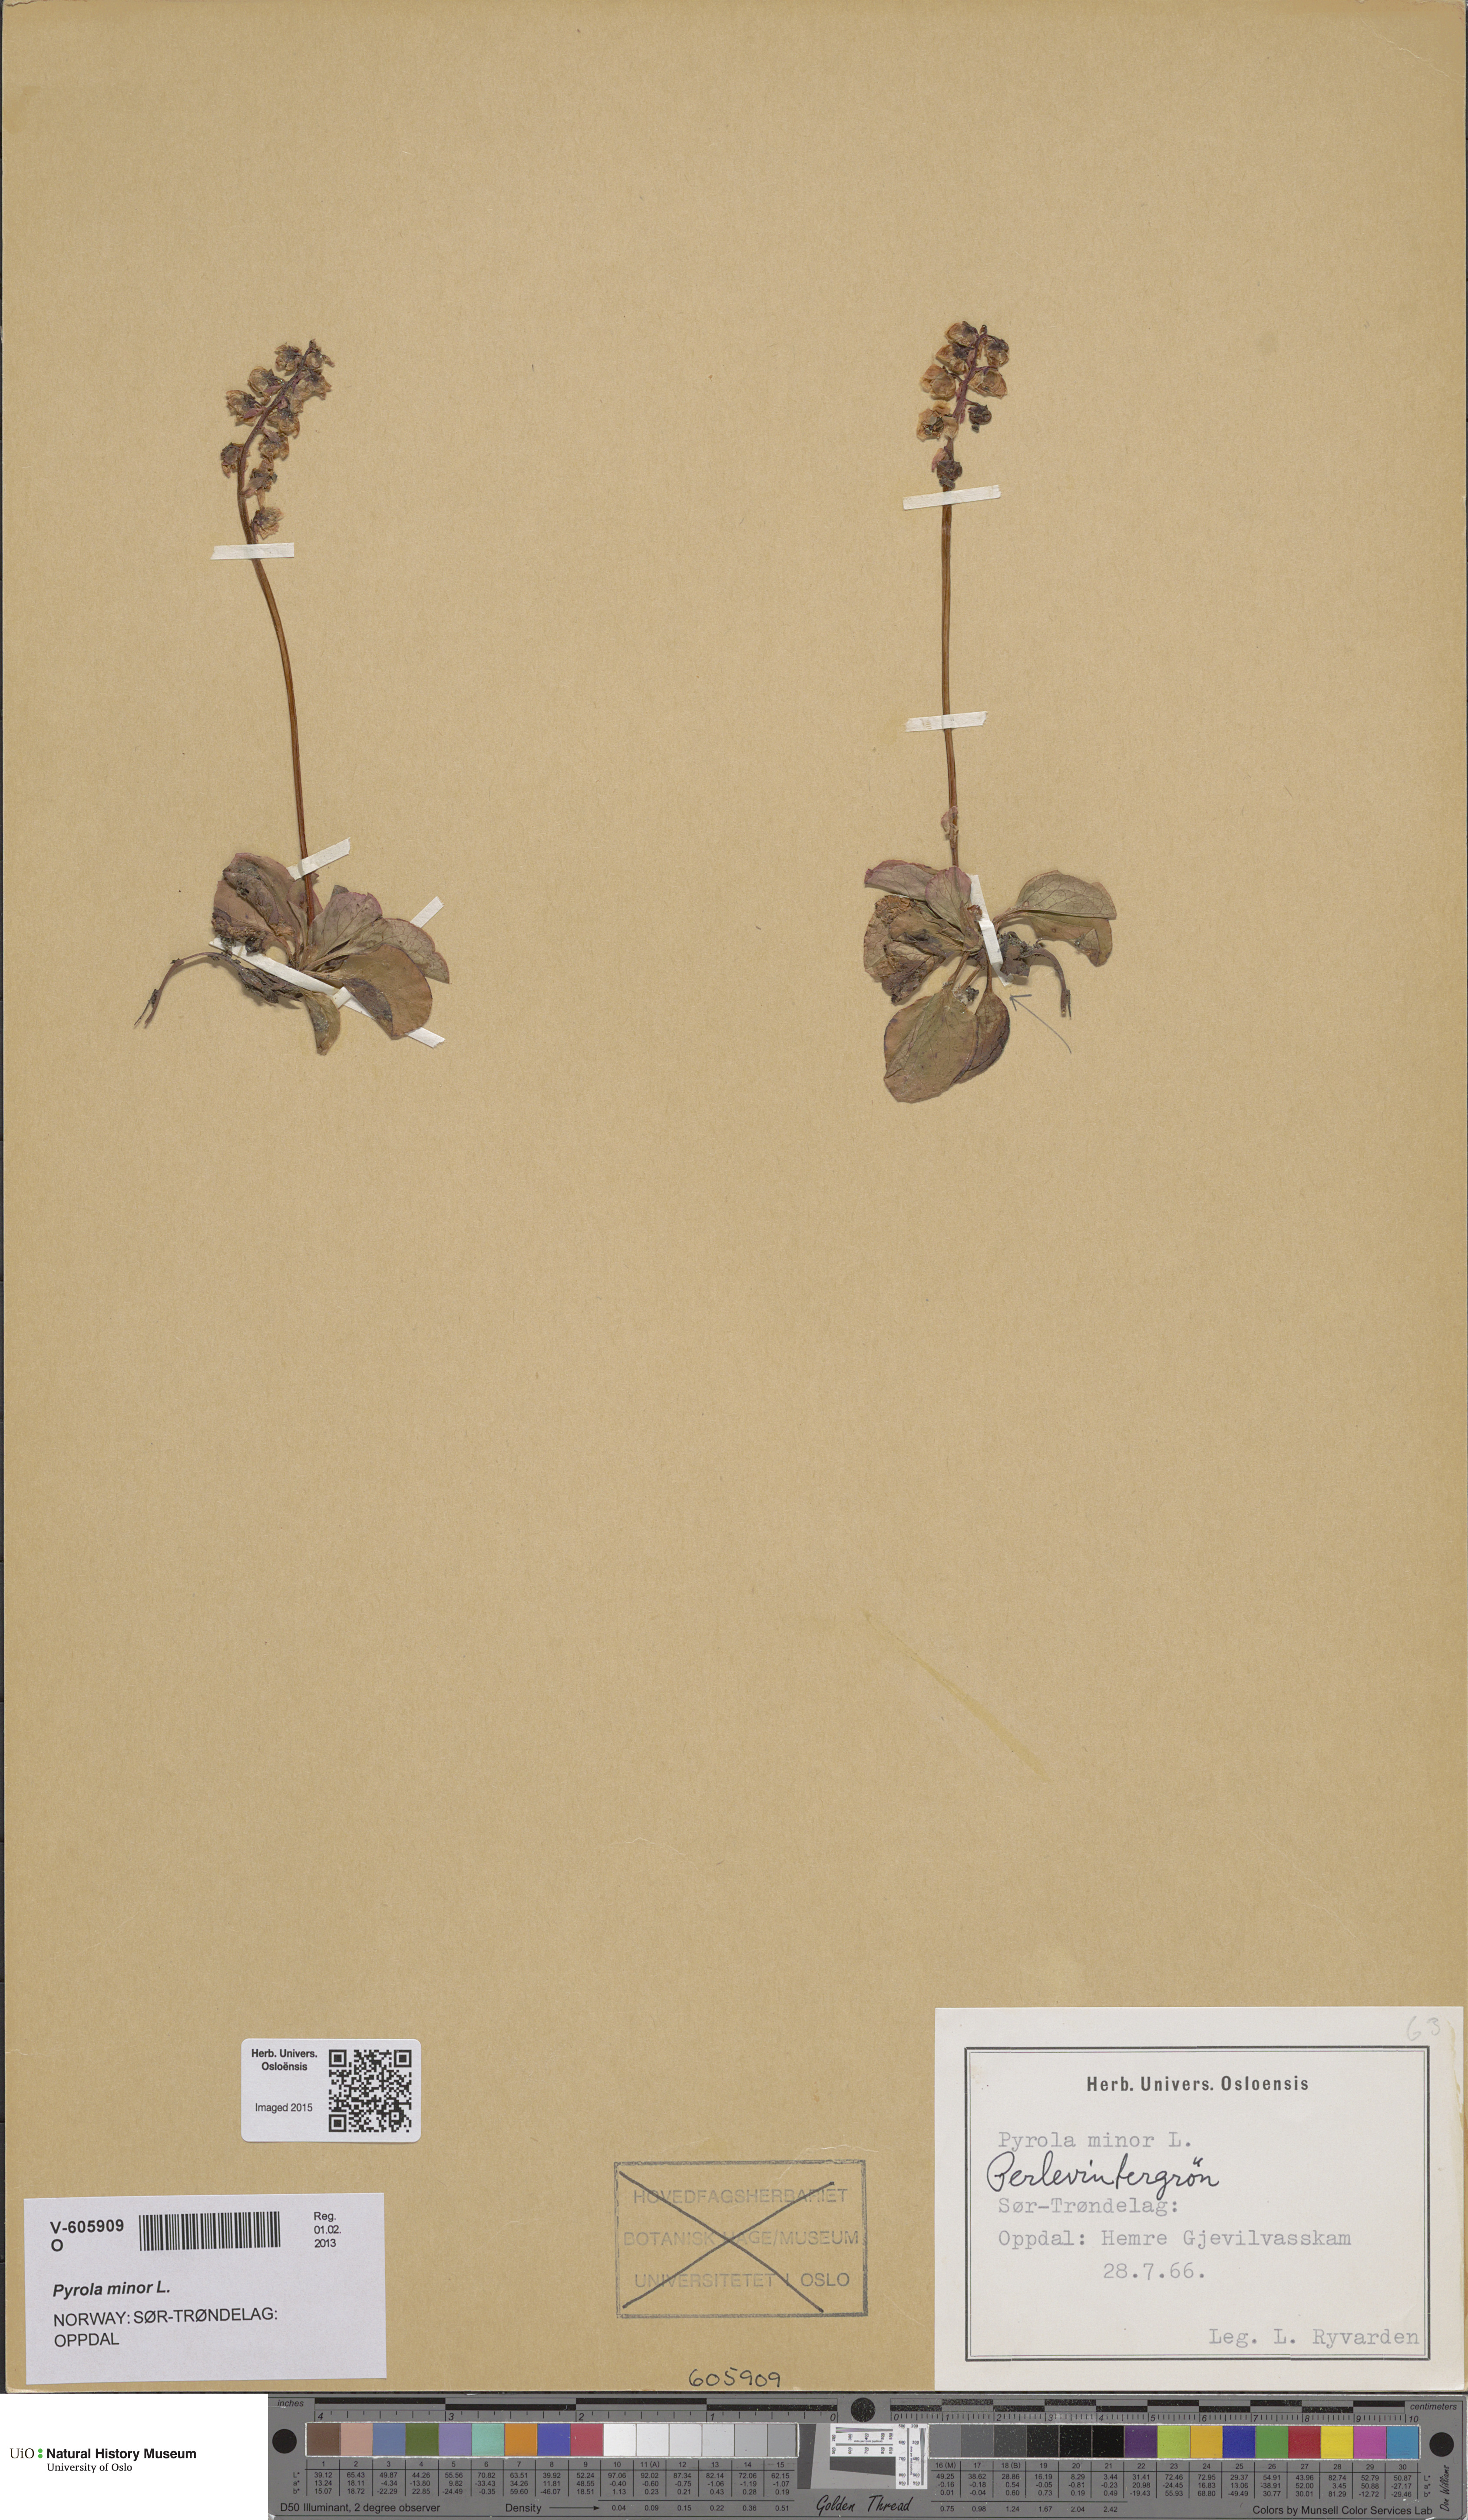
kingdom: Plantae
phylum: Tracheophyta
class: Magnoliopsida
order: Ericales
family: Ericaceae
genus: Pyrola
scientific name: Pyrola minor
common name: Common wintergreen
